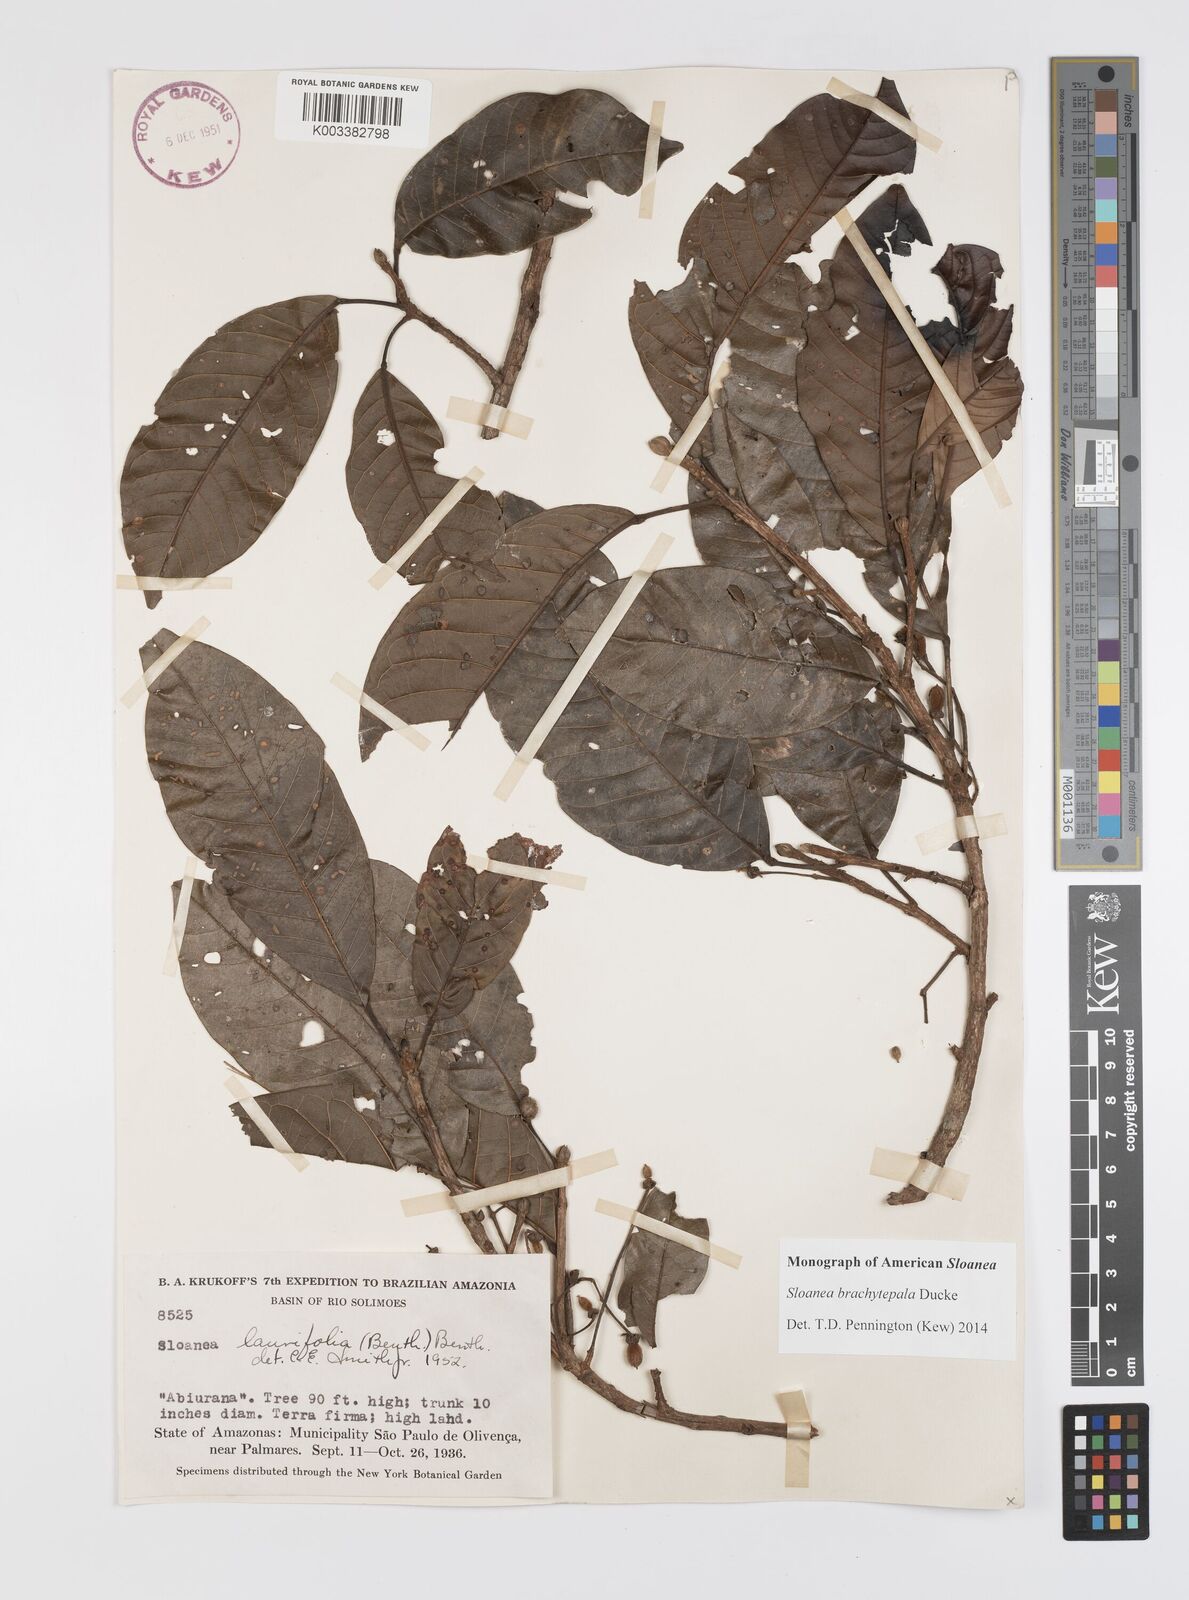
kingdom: Plantae
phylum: Tracheophyta
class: Magnoliopsida
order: Oxalidales
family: Elaeocarpaceae
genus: Sloanea
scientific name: Sloanea brachytepala
